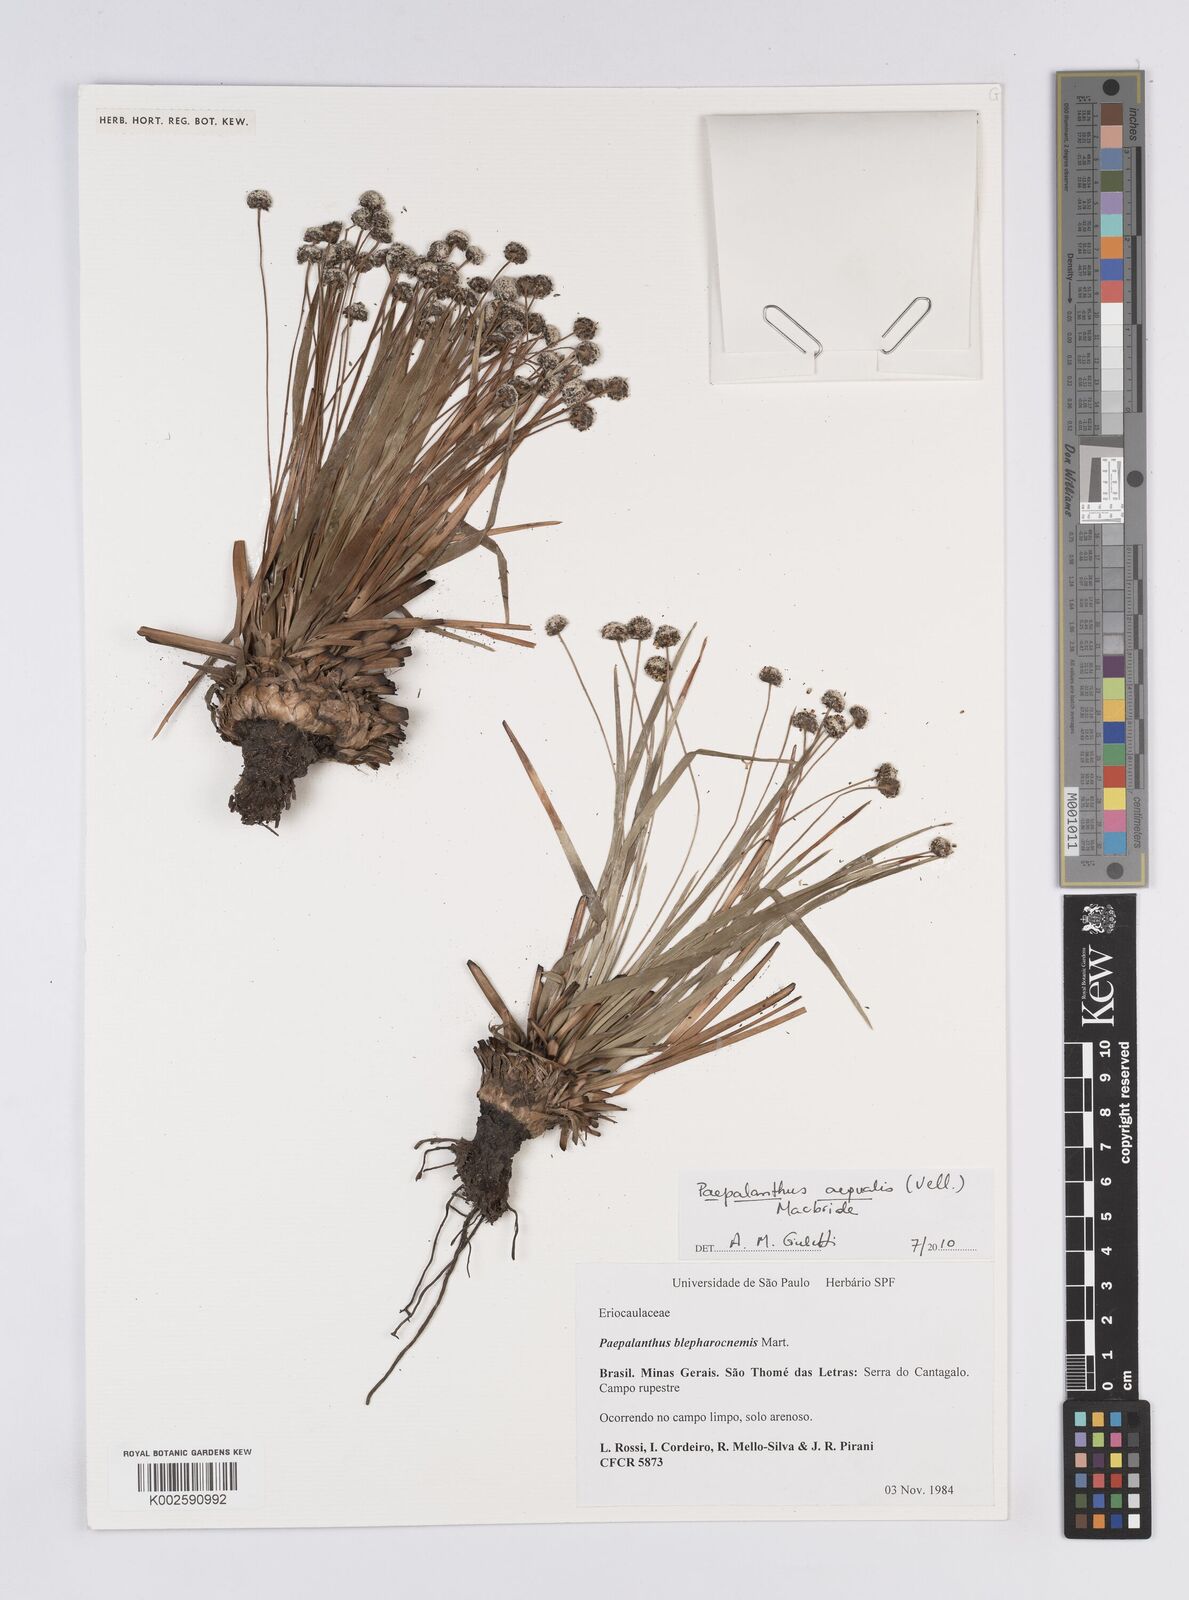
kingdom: Plantae
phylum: Tracheophyta
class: Liliopsida
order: Poales
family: Eriocaulaceae
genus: Paepalanthus
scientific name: Paepalanthus aequalis
